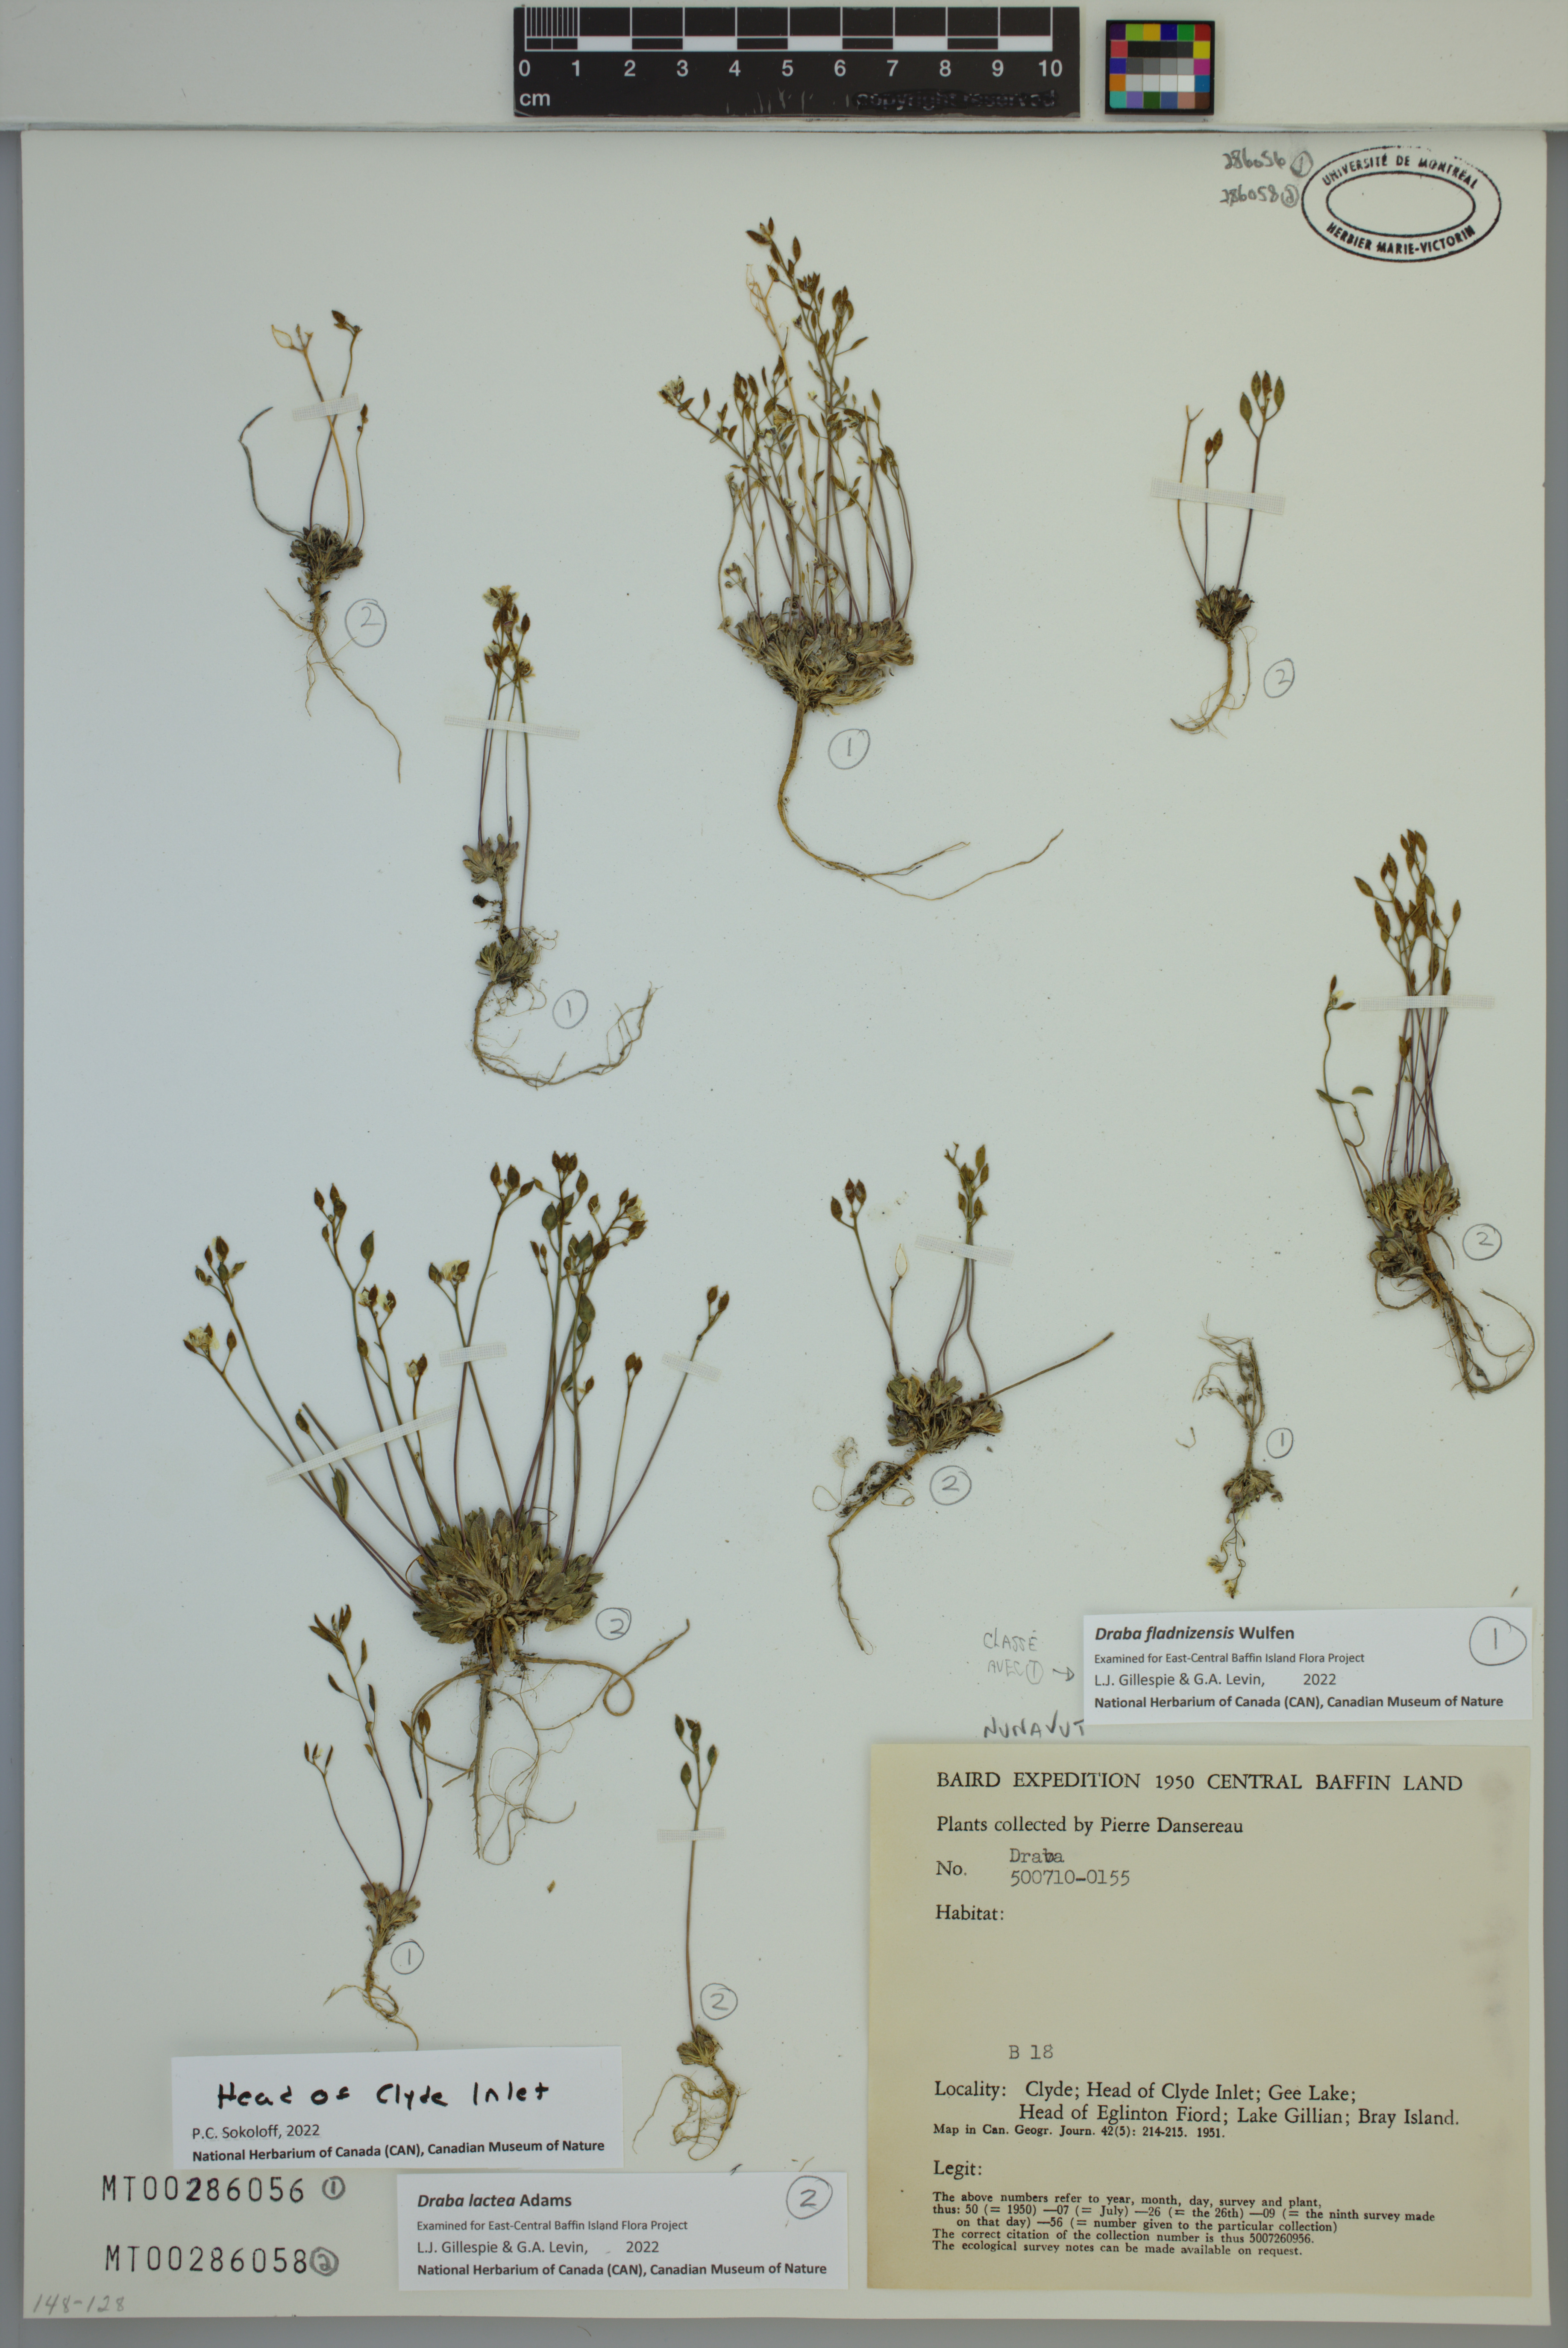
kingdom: Plantae
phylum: Tracheophyta
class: Magnoliopsida
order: Brassicales
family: Brassicaceae
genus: Draba
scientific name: Draba fladnizensis
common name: Austrian draba
